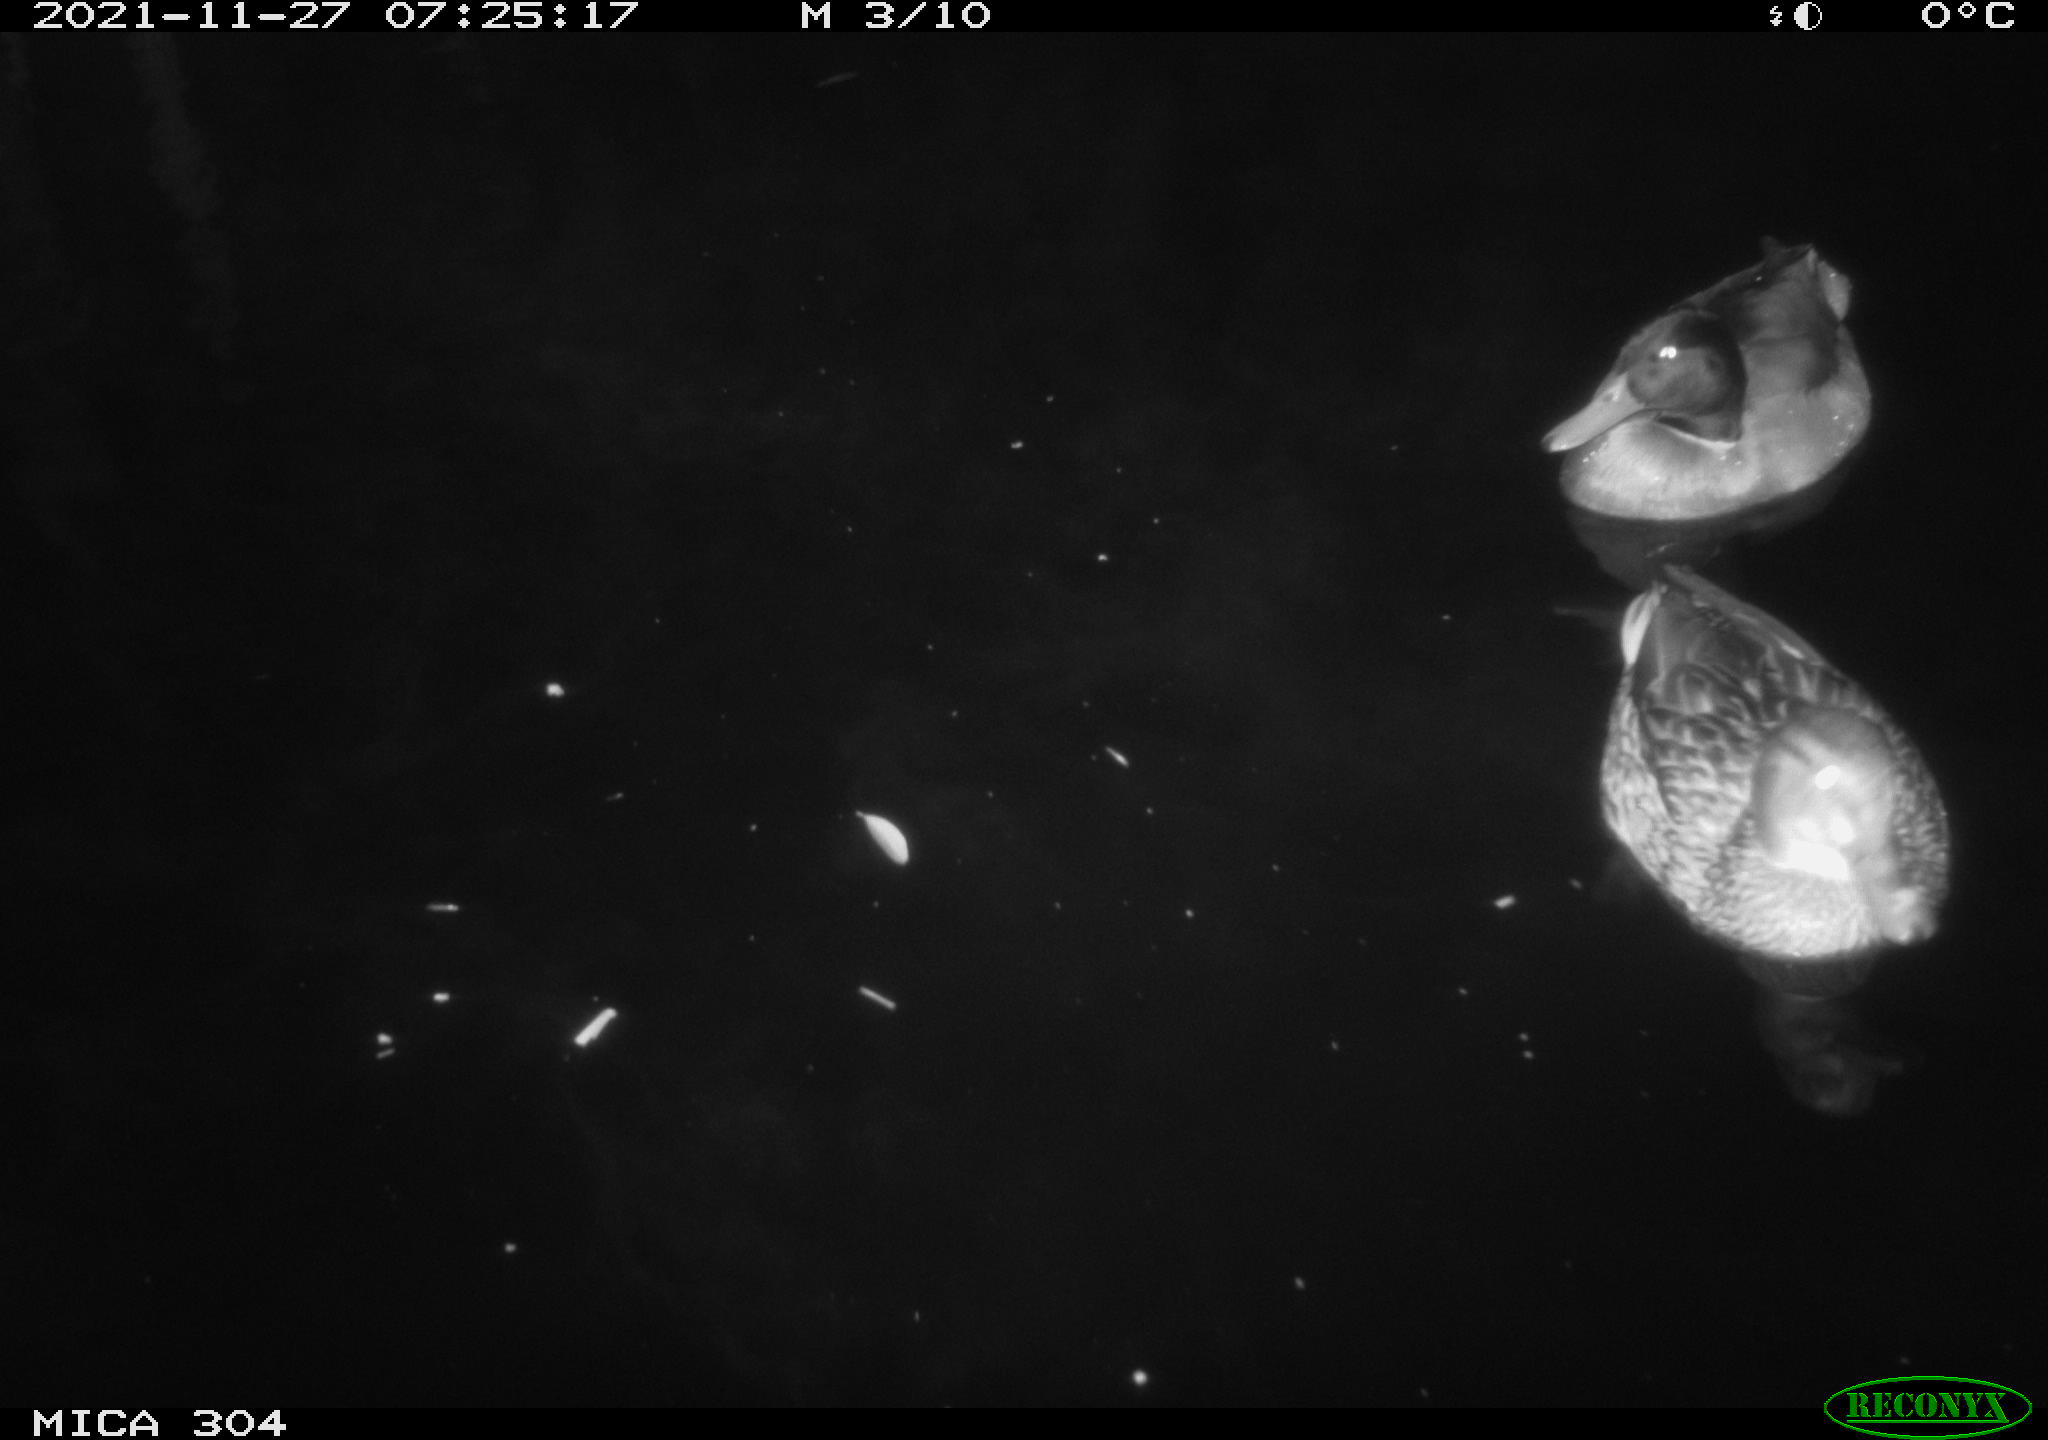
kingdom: Animalia
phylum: Chordata
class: Aves
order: Anseriformes
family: Anatidae
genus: Anas
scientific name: Anas platyrhynchos
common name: Mallard
